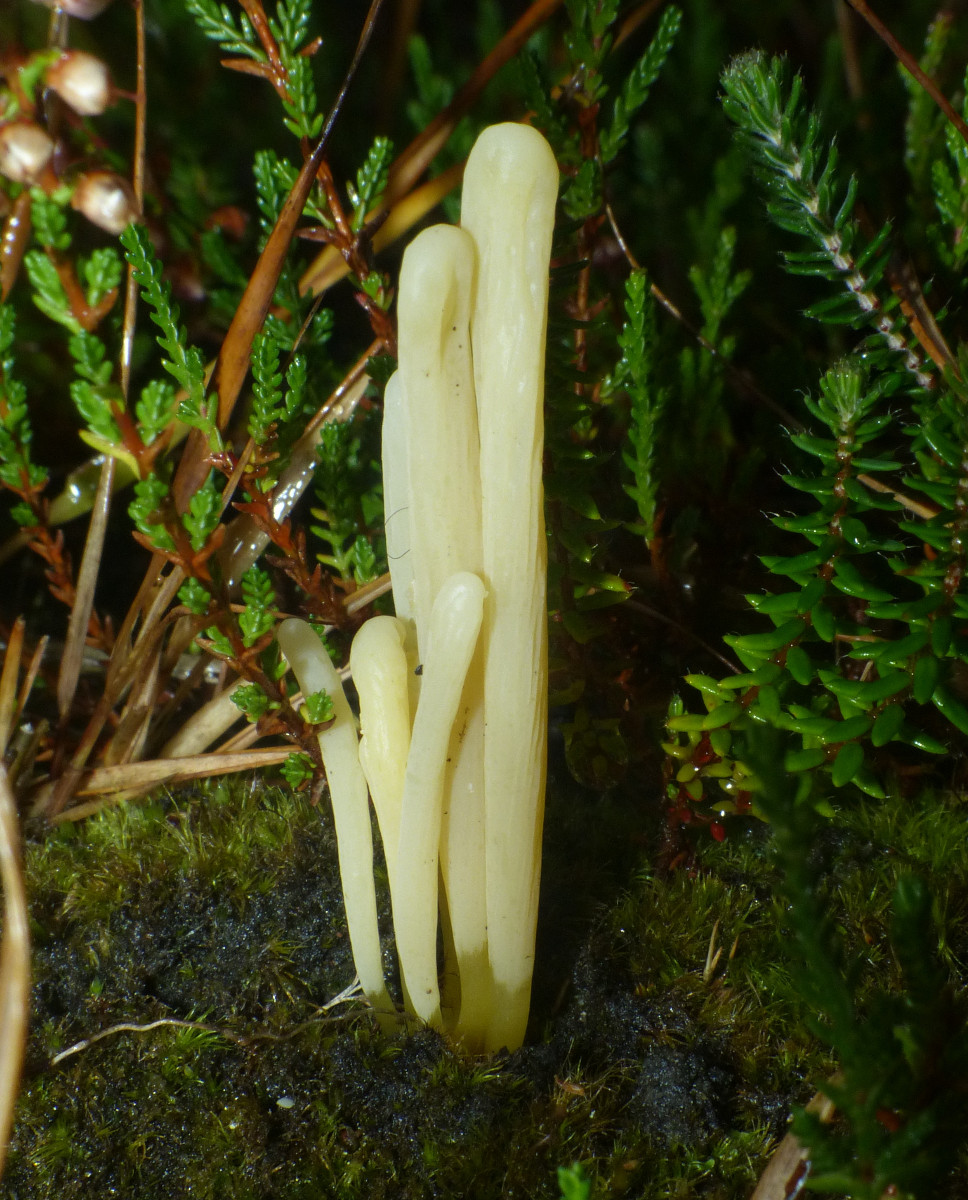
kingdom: Fungi
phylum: Basidiomycota
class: Agaricomycetes
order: Agaricales
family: Clavariaceae
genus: Clavaria
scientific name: Clavaria argillacea
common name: lerfarvet køllesvamp
